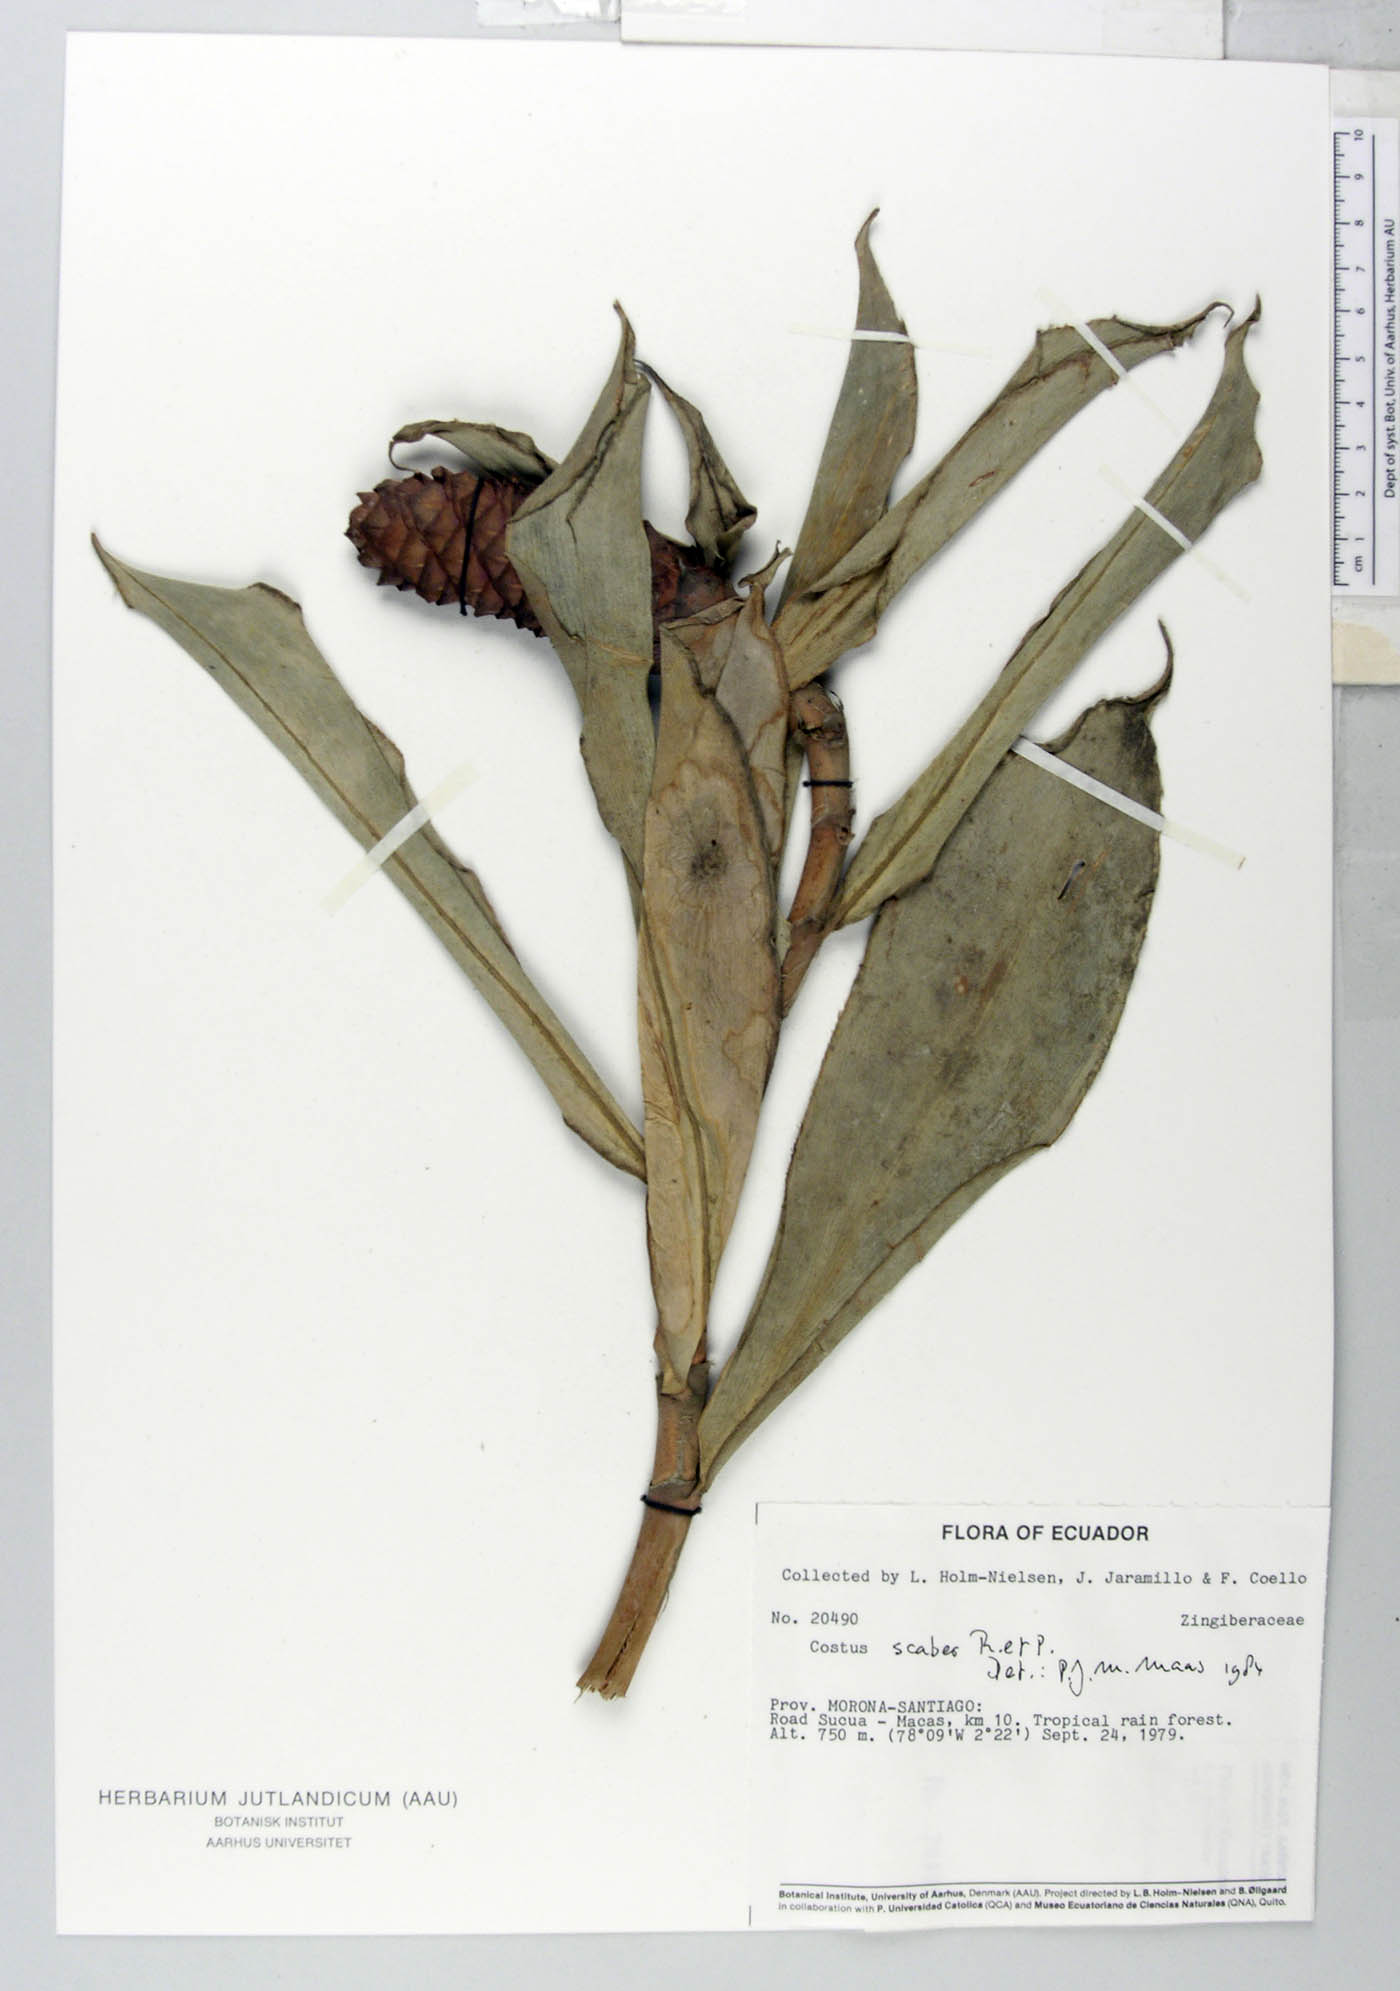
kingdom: Plantae
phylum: Tracheophyta
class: Liliopsida
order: Zingiberales
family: Costaceae
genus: Costus
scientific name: Costus scaber
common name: Spiral head ginger
